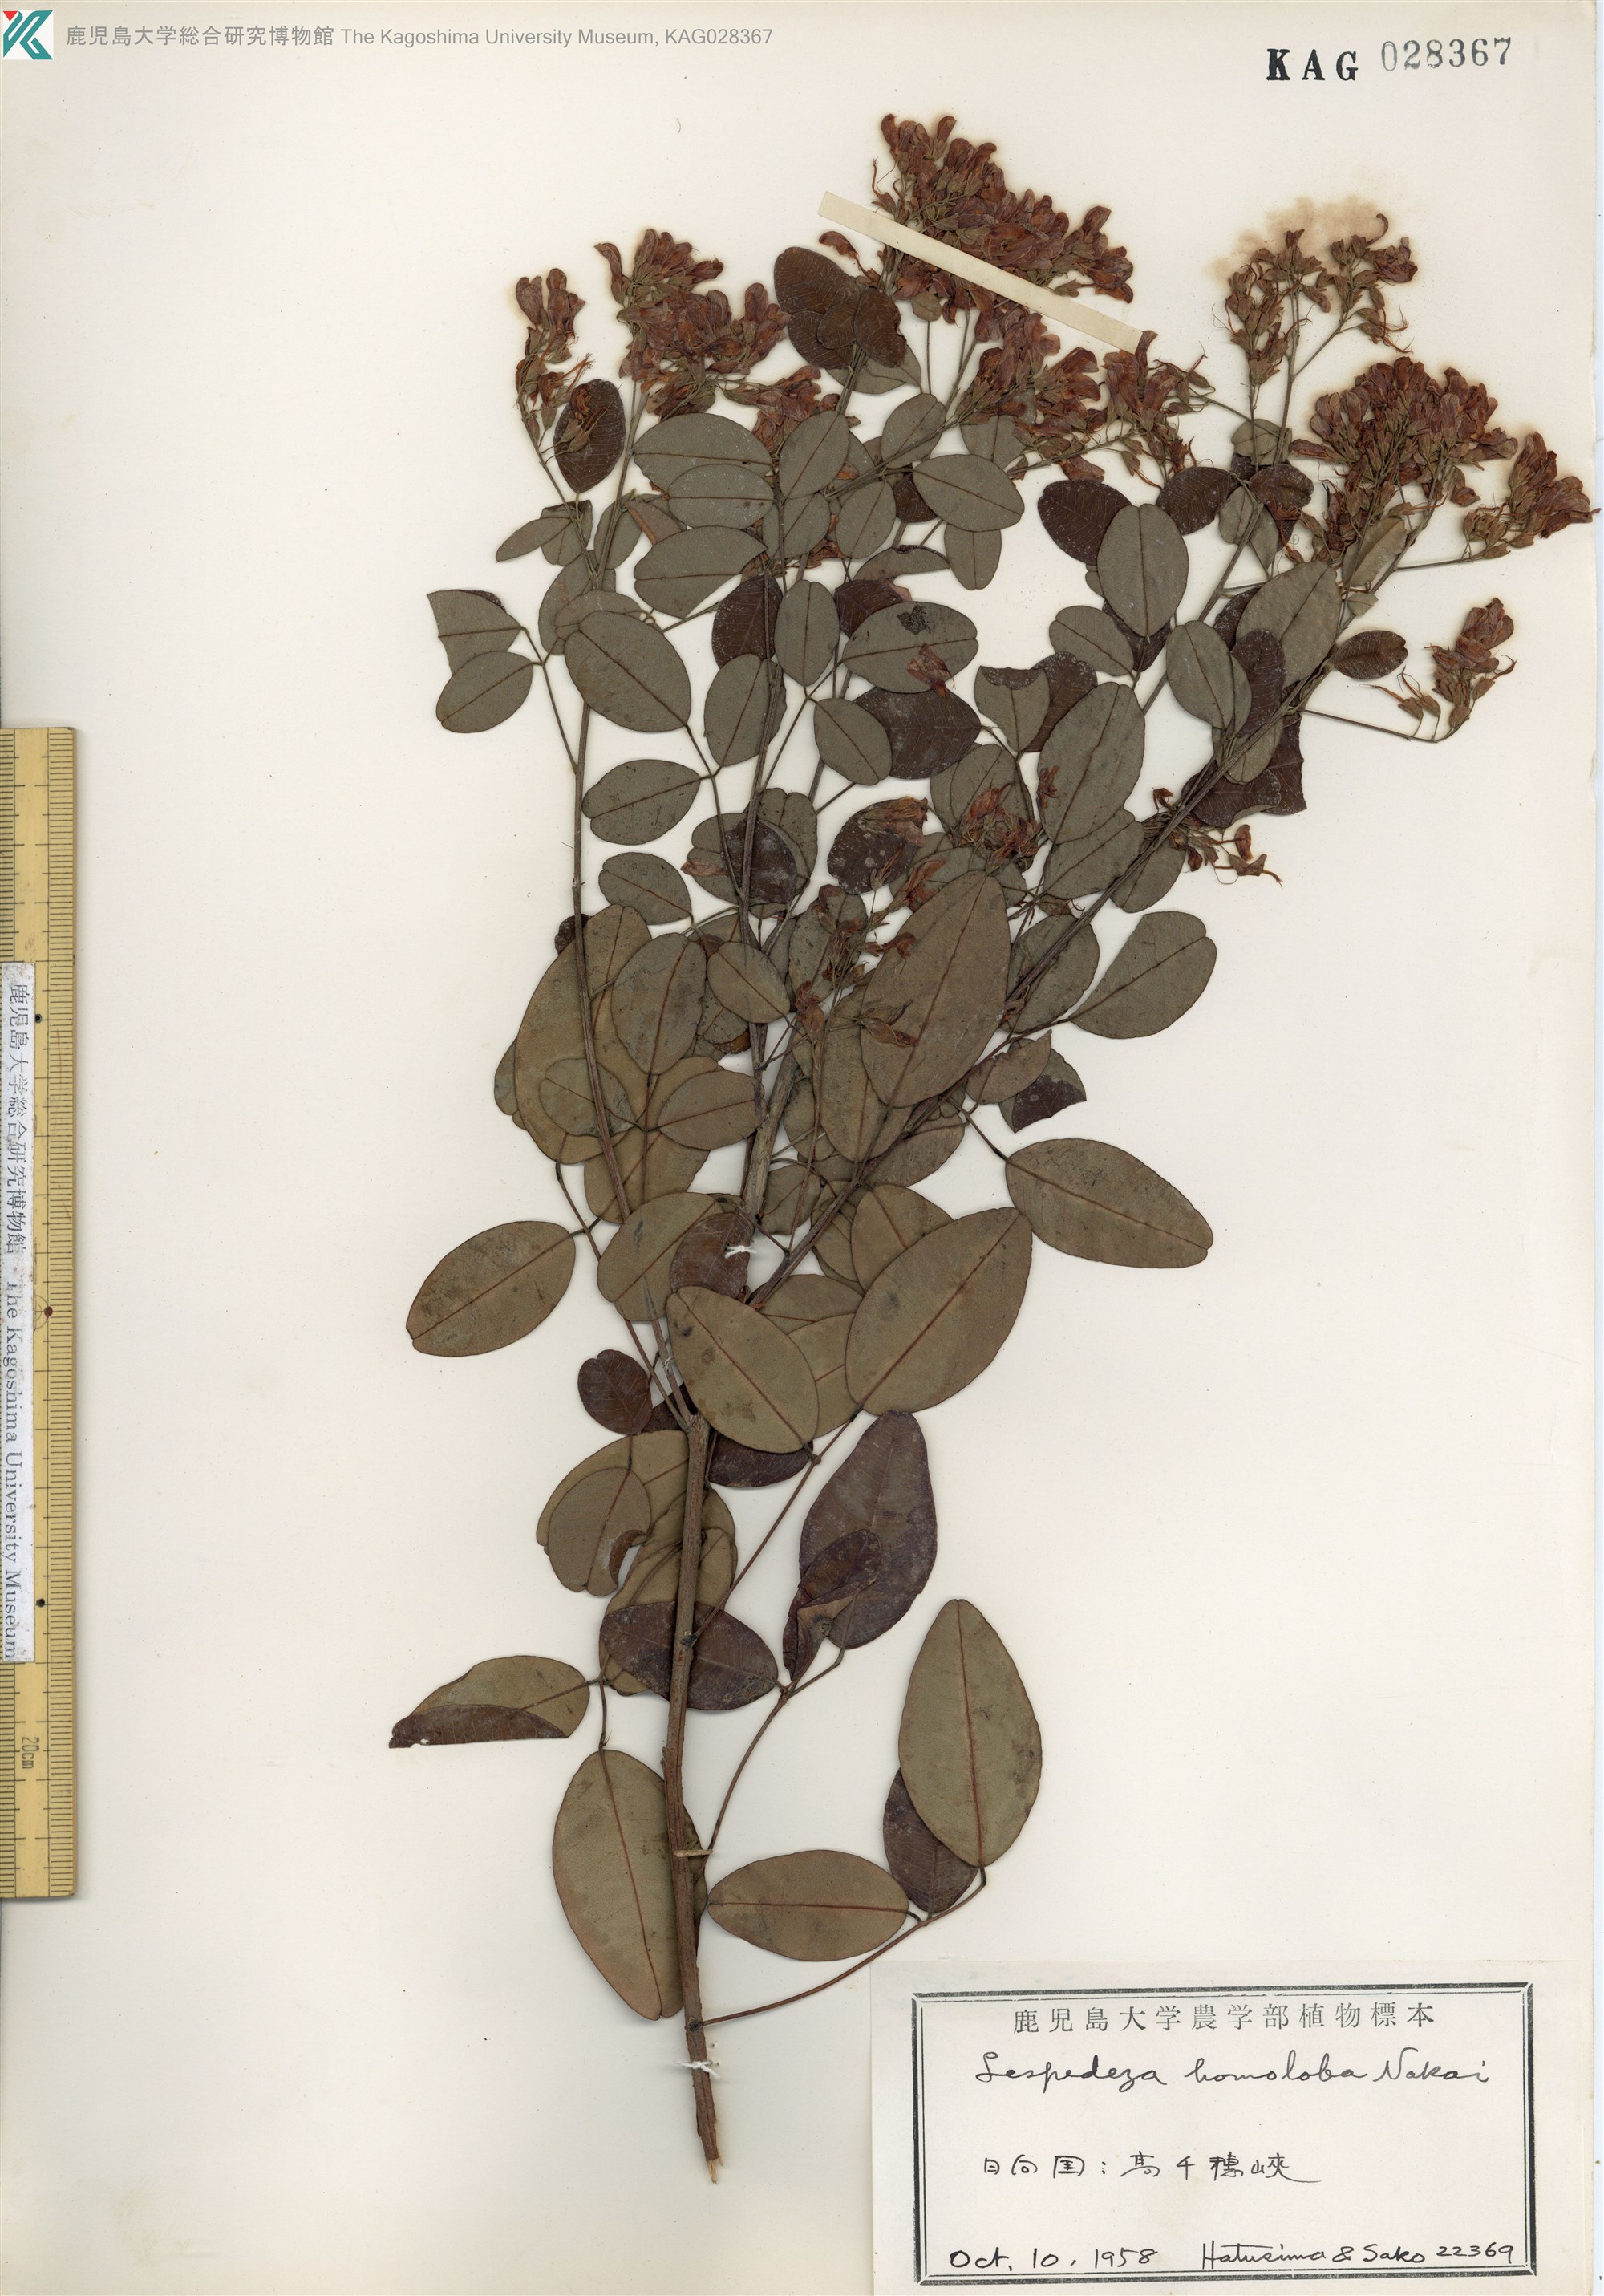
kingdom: Plantae
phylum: Tracheophyta
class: Magnoliopsida
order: Fabales
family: Fabaceae
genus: Lespedeza
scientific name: Lespedeza homoloba
